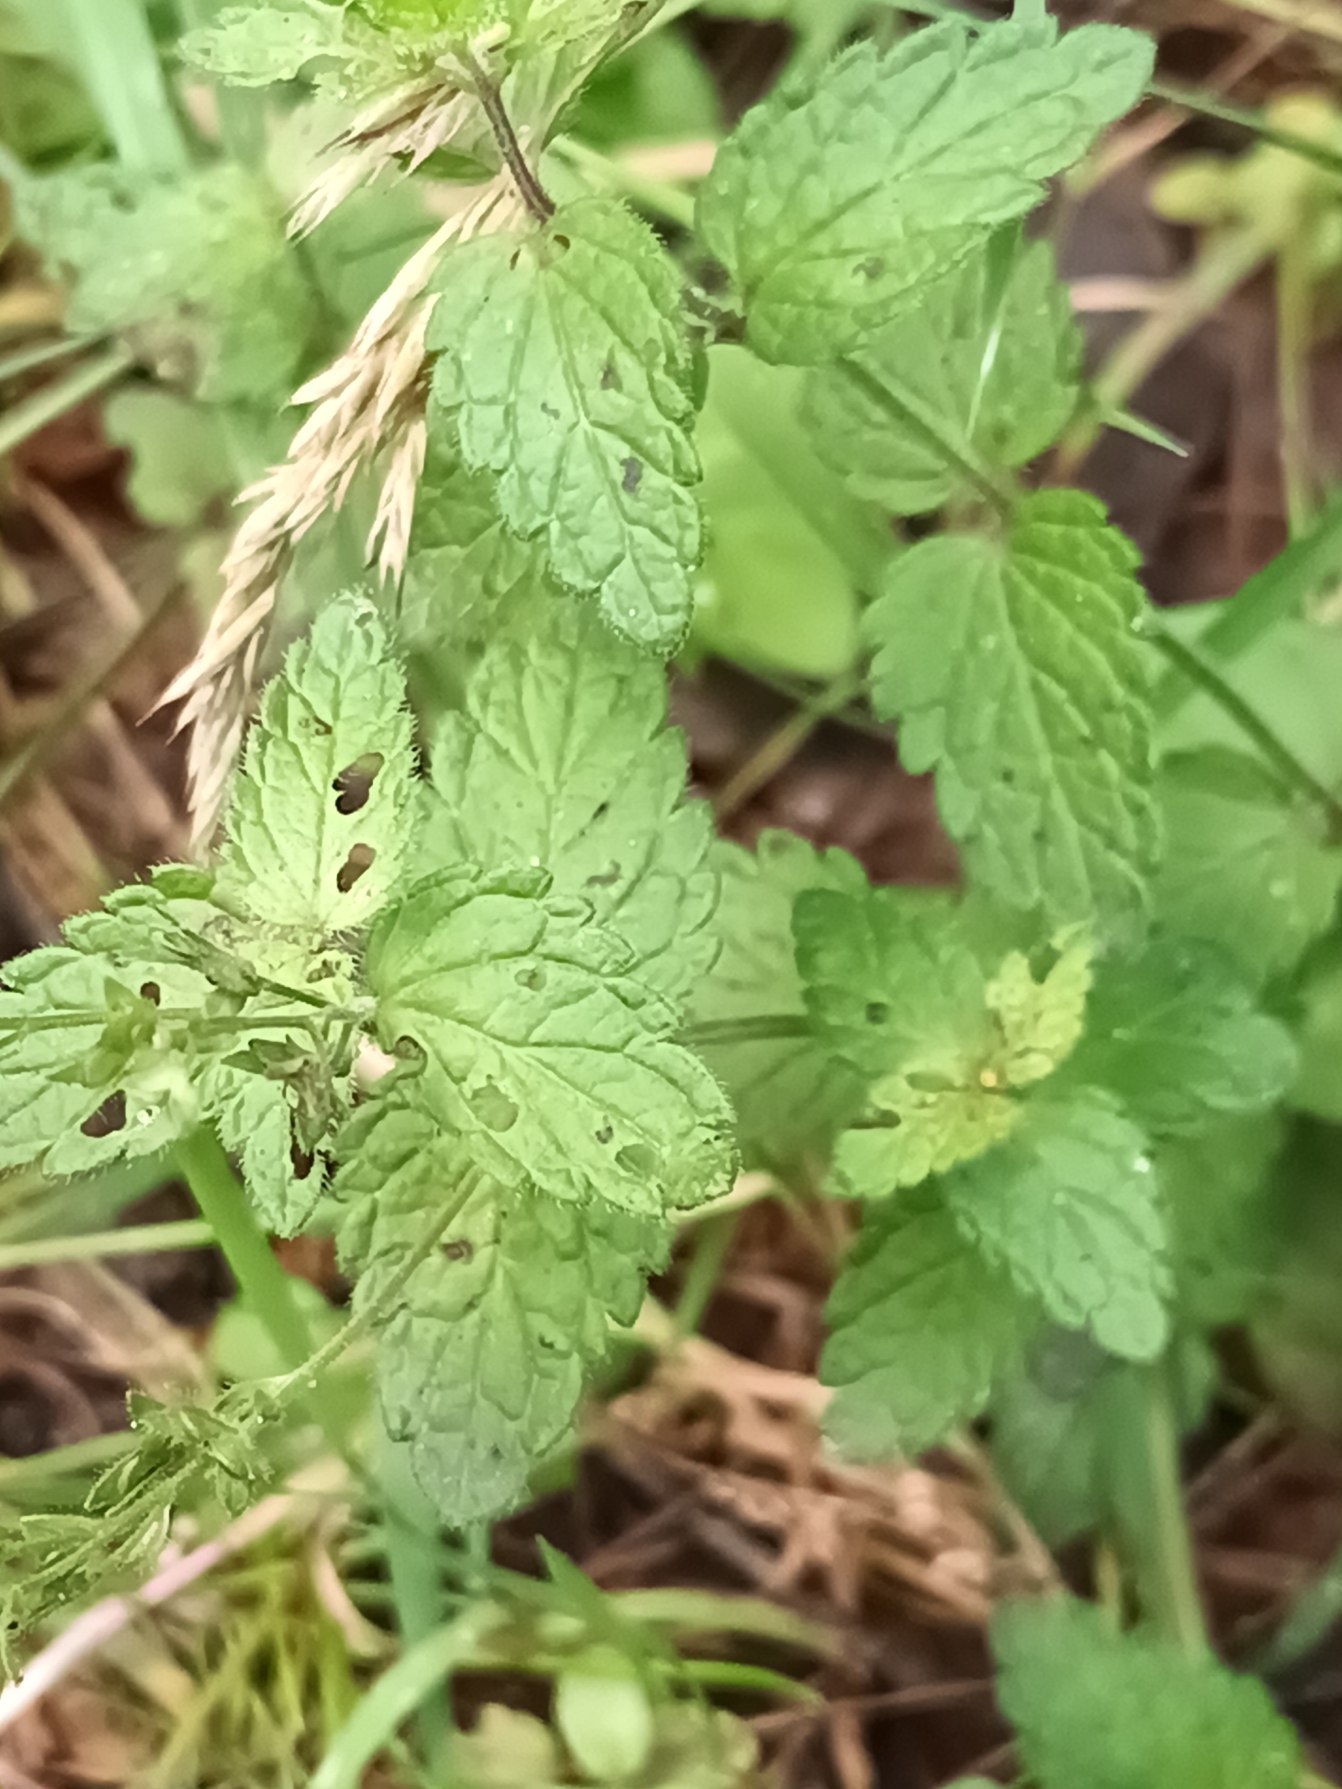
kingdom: Plantae
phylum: Tracheophyta
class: Magnoliopsida
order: Lamiales
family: Plantaginaceae
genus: Veronica
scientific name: Veronica chamaedrys
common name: Tveskægget ærenpris
